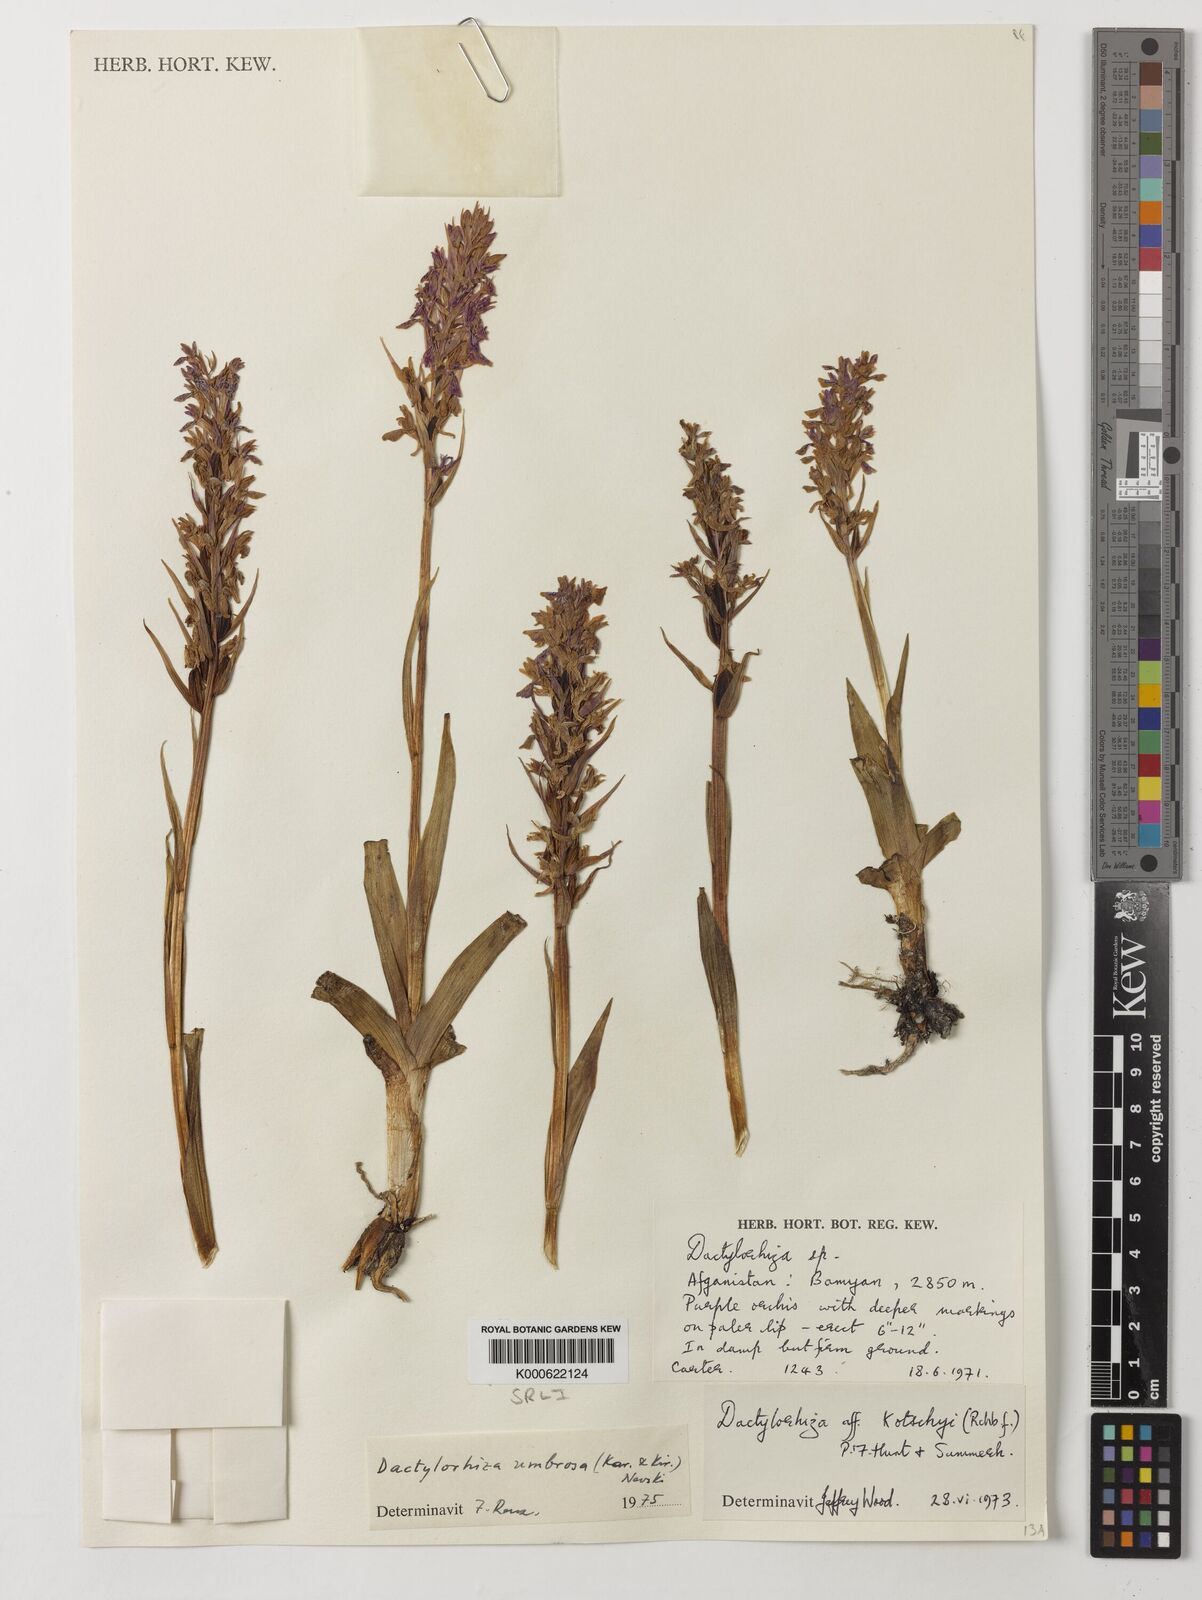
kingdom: Plantae
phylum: Tracheophyta
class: Liliopsida
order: Asparagales
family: Orchidaceae
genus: Dactylorhiza
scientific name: Dactylorhiza
